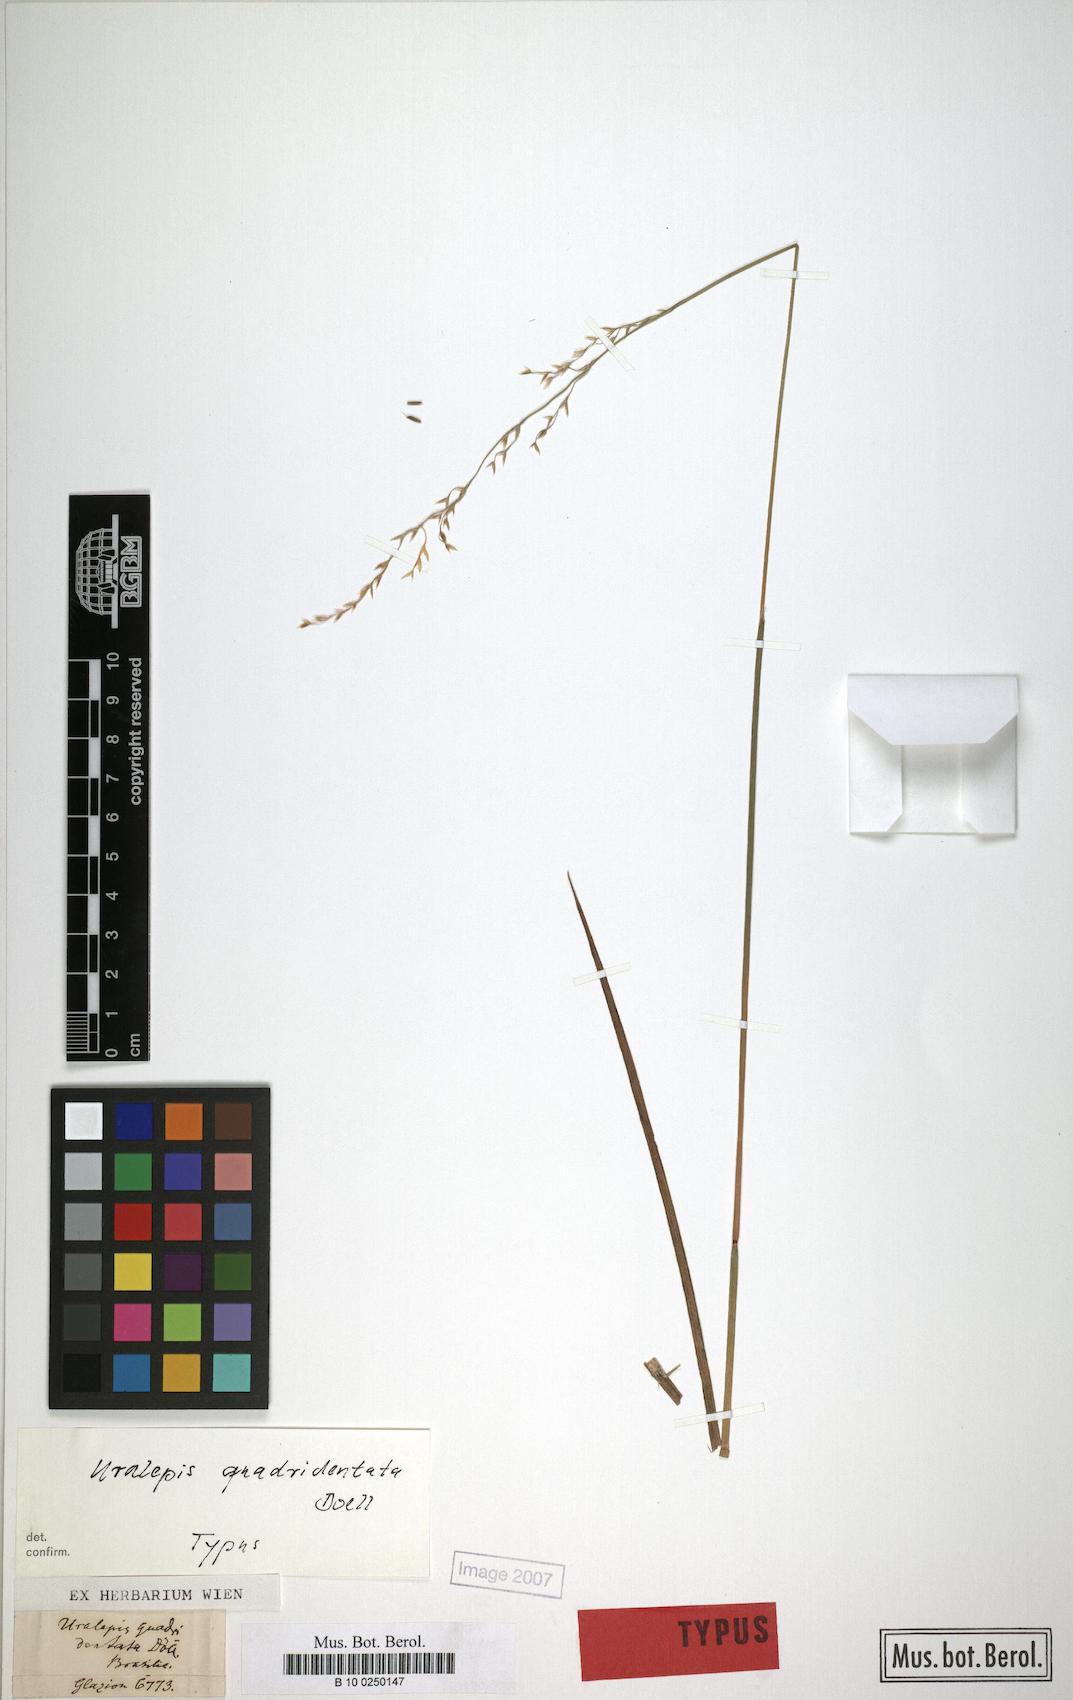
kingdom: Plantae
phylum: Tracheophyta
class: Liliopsida
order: Poales
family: Poaceae
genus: Amphibromus
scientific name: Amphibromus quadridentulus
